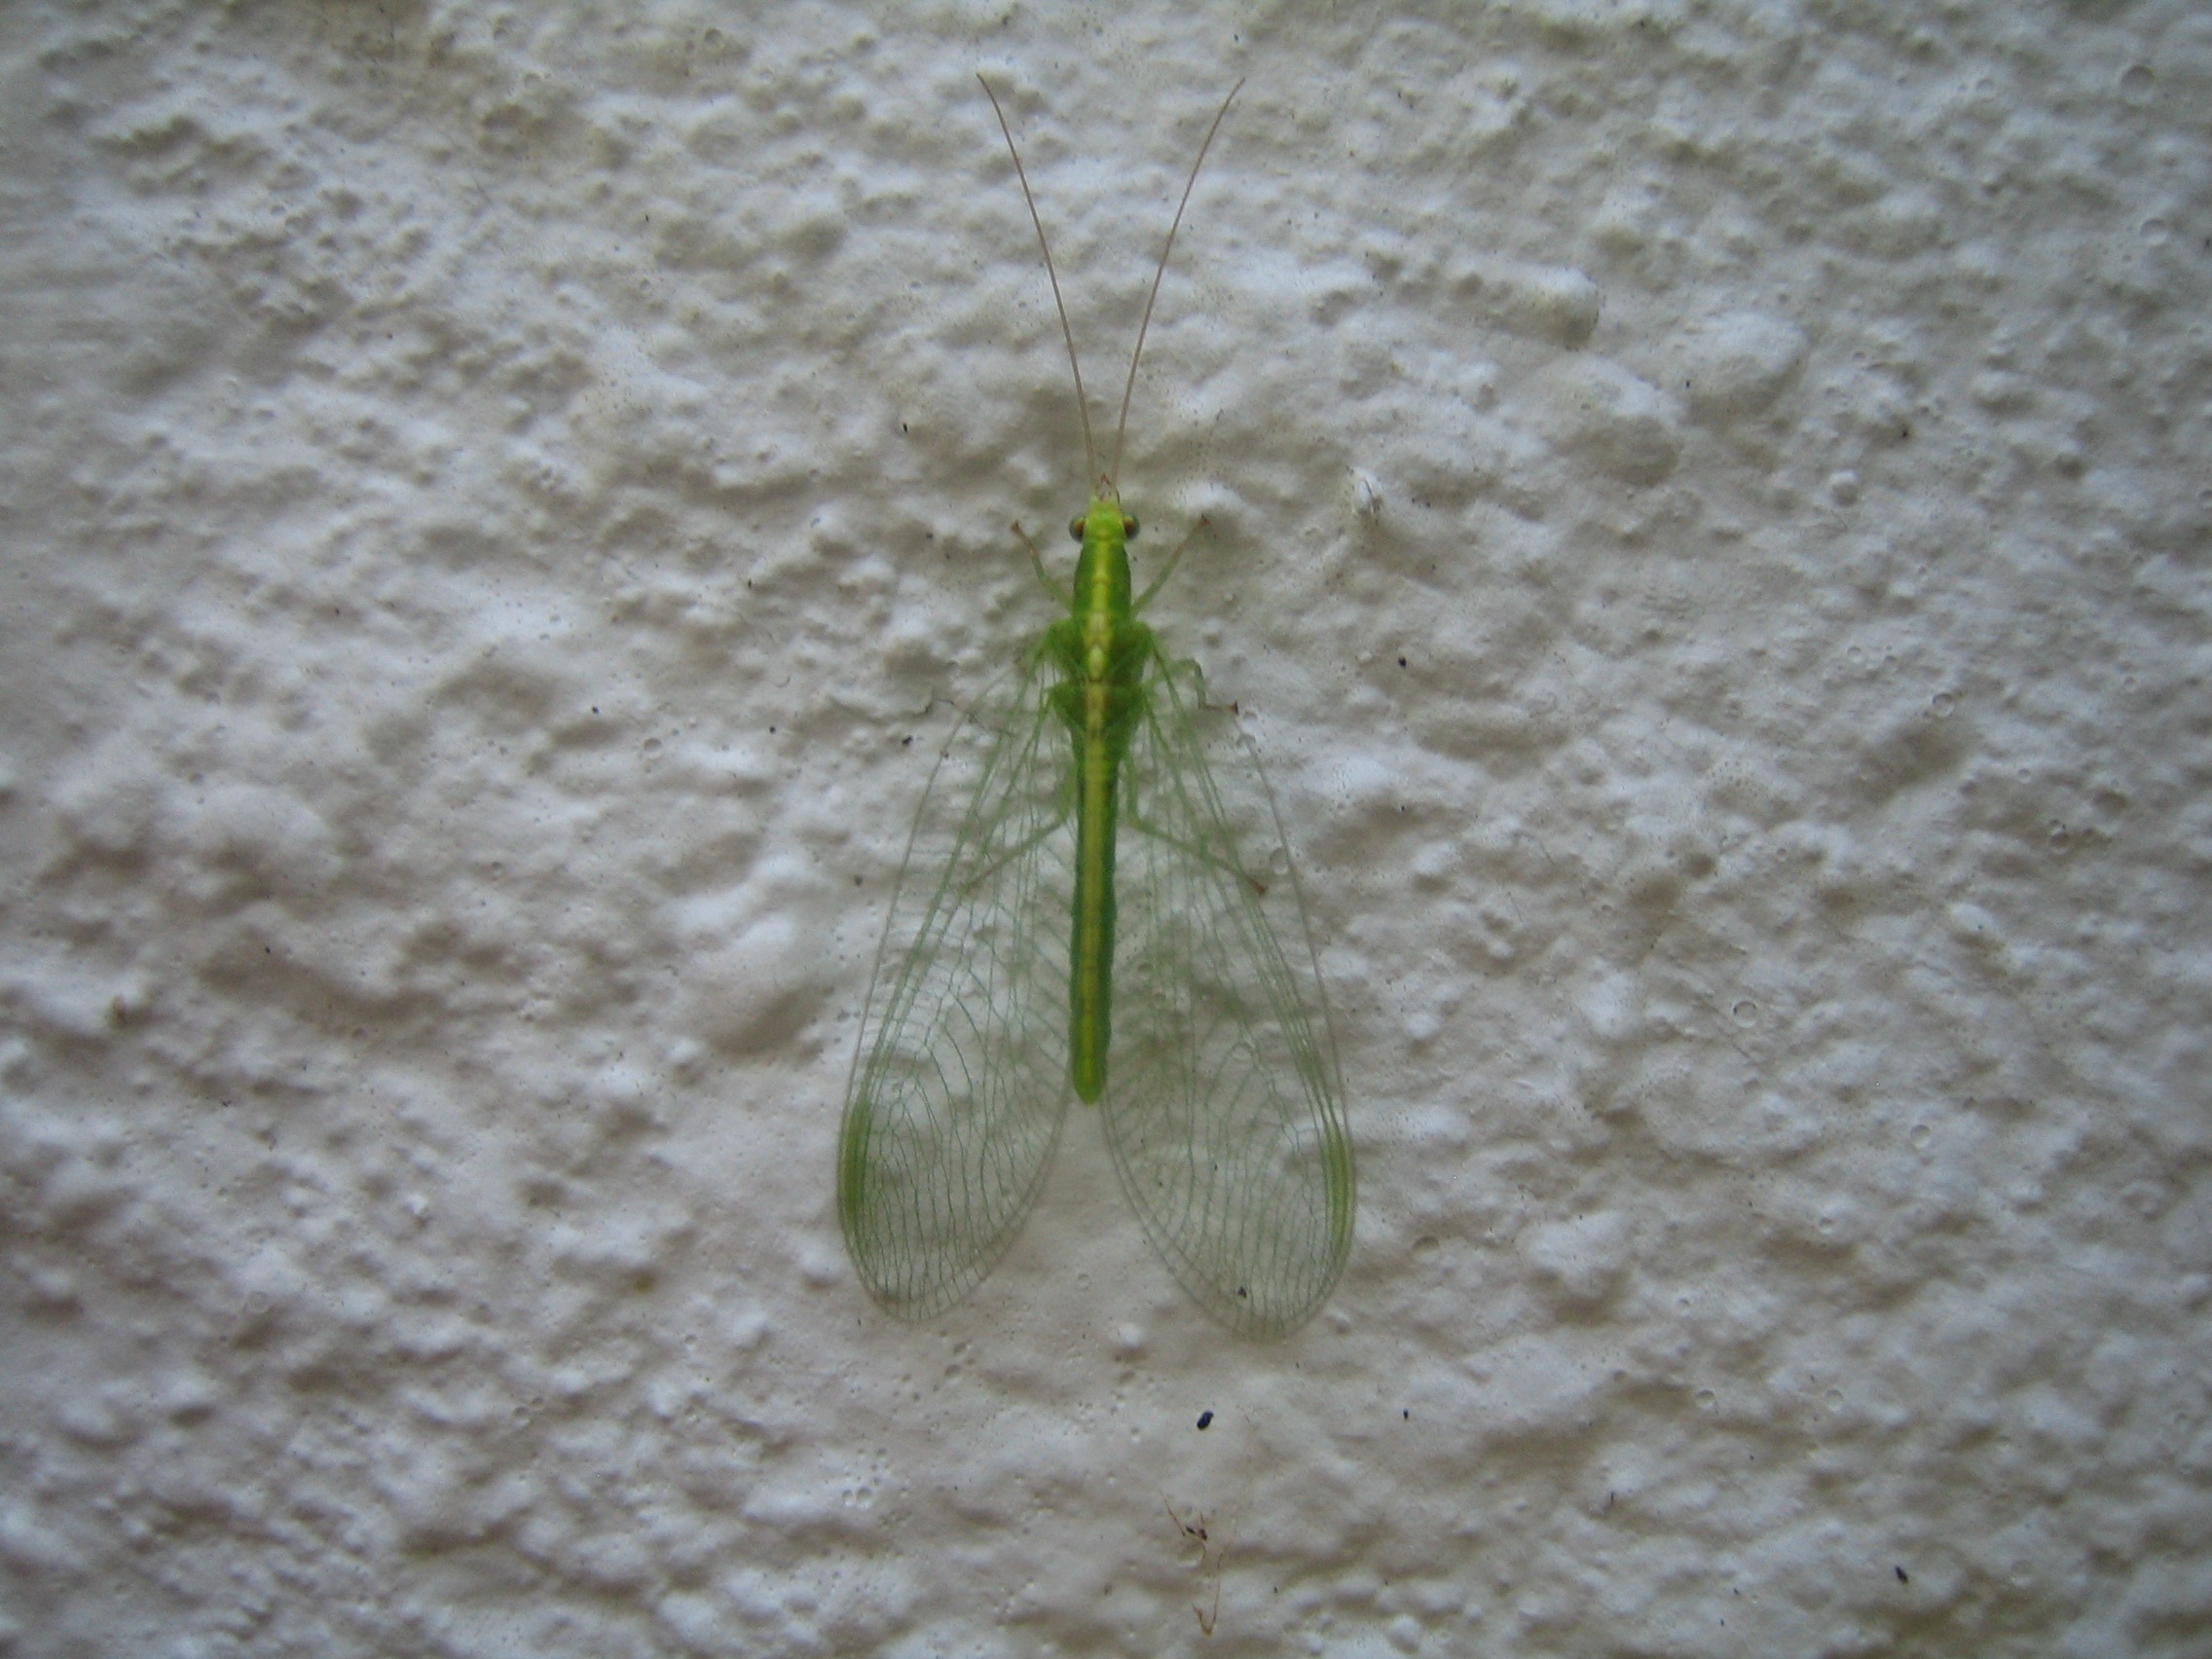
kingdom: Animalia
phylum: Arthropoda
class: Insecta
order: Neuroptera
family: Chrysopidae
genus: Chrysoperla
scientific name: Chrysoperla carnea
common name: Almindelig guldøje
